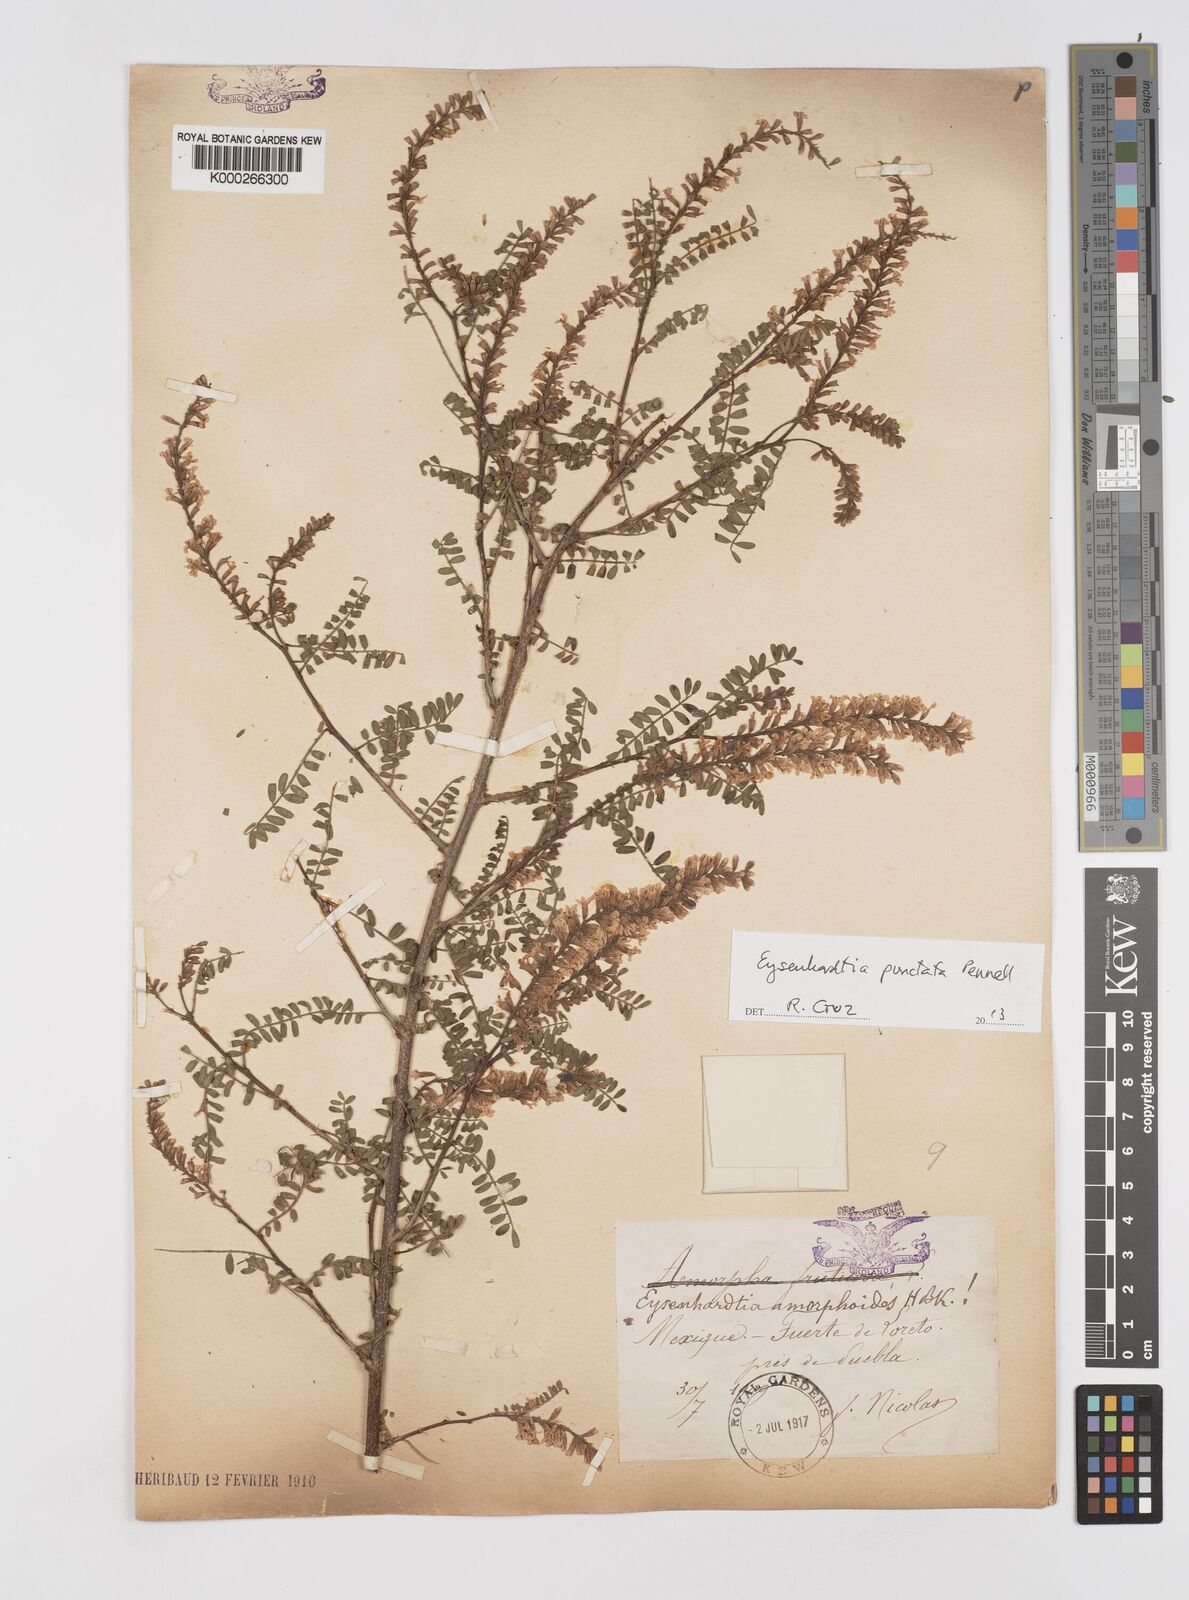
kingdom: Plantae
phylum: Tracheophyta
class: Magnoliopsida
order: Fabales
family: Fabaceae
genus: Eysenhardtia
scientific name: Eysenhardtia punctata
